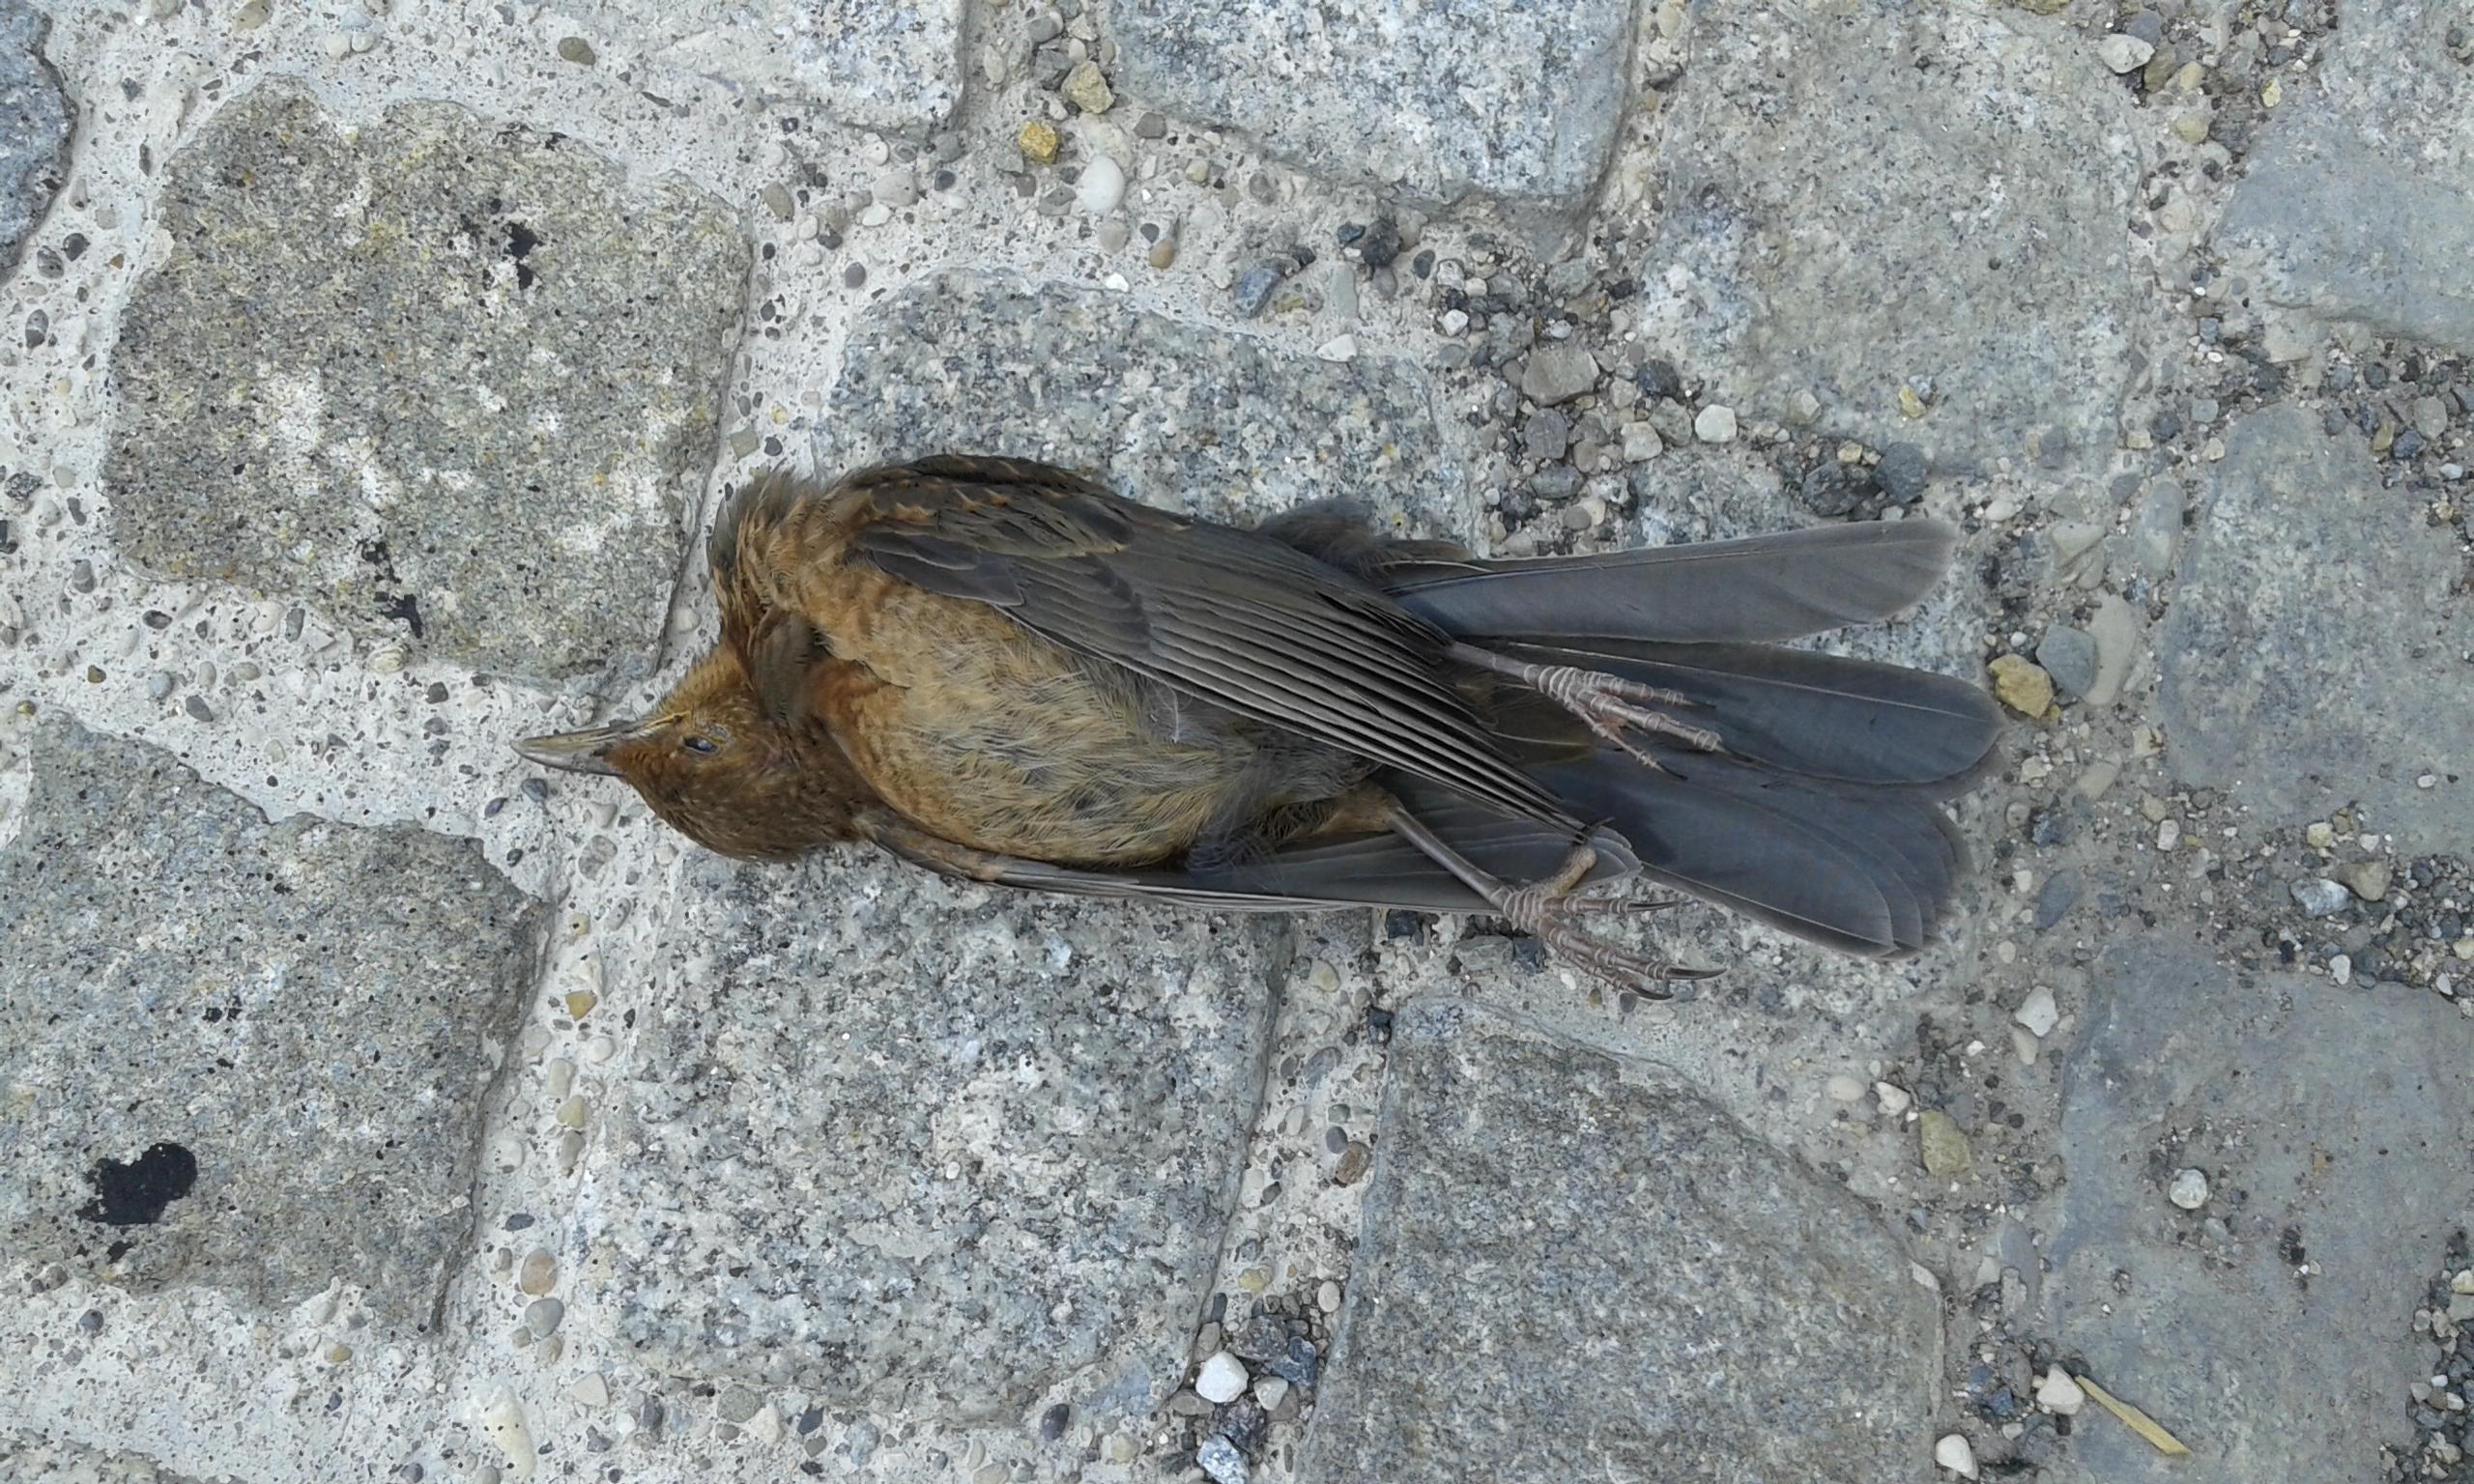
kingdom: Animalia
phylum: Chordata
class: Aves
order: Passeriformes
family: Turdidae
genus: Turdus
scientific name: Turdus merula
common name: Common blackbird
